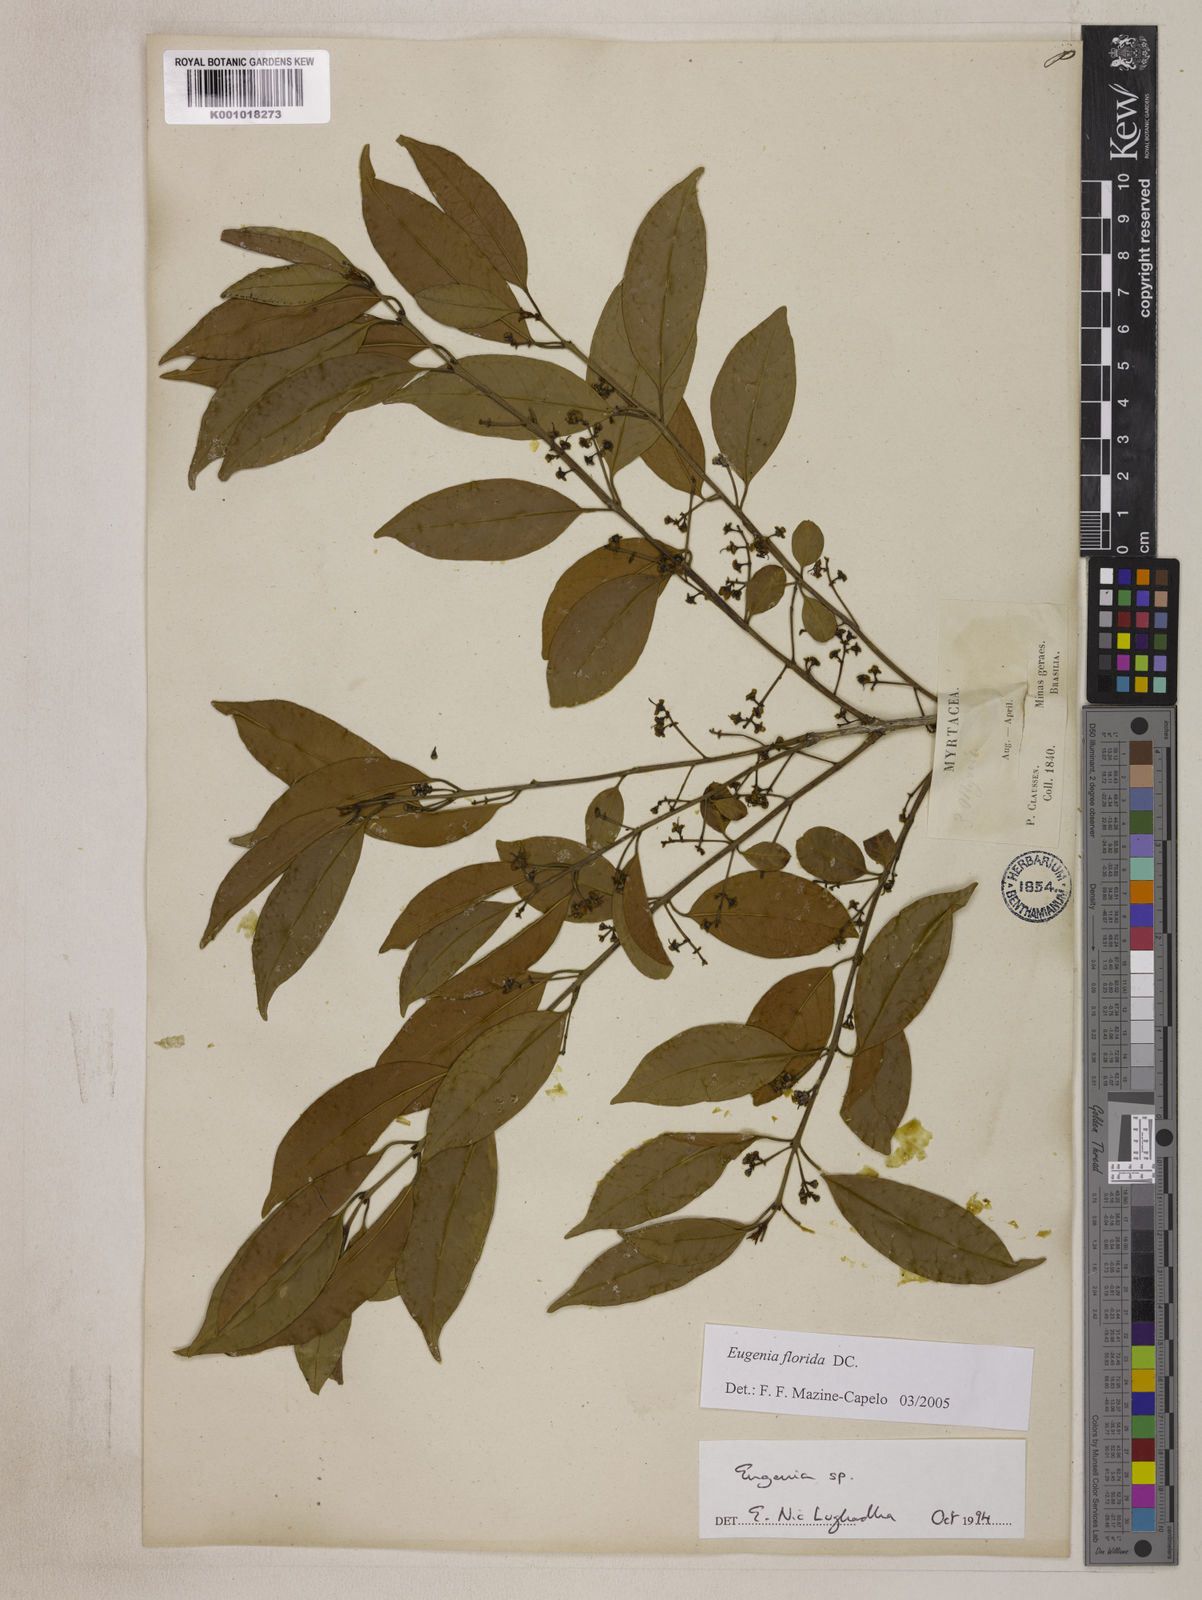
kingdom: Plantae
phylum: Tracheophyta
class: Magnoliopsida
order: Myrtales
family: Myrtaceae
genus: Eugenia
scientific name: Eugenia florida
